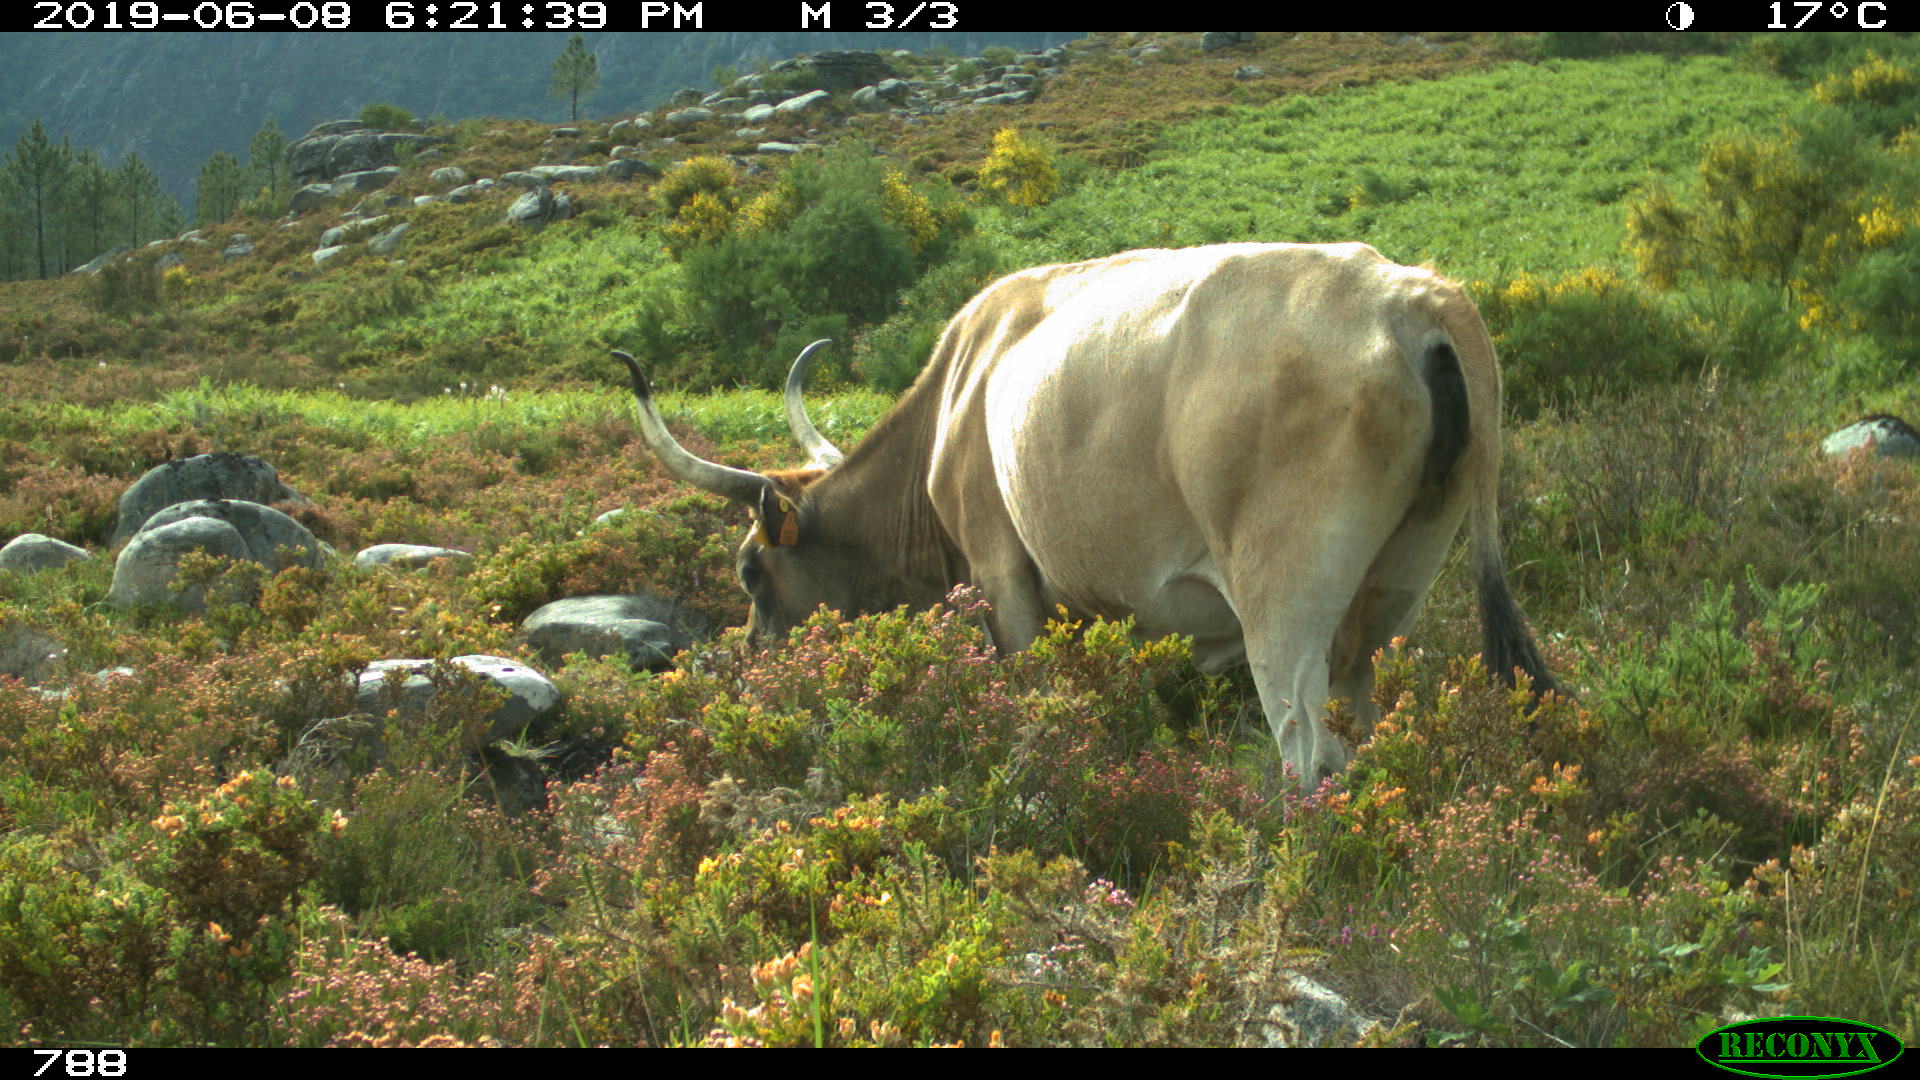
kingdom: Animalia
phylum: Chordata
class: Mammalia
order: Artiodactyla
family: Bovidae
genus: Bos
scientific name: Bos taurus
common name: Domesticated cattle
